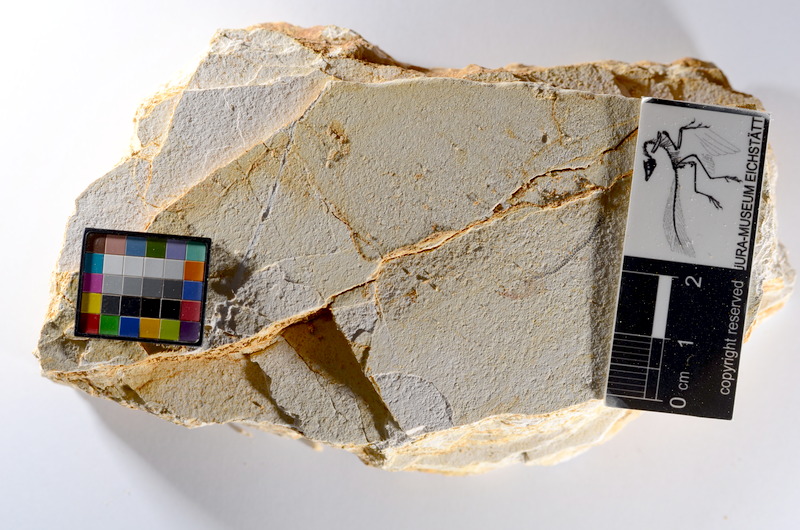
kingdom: Animalia
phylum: Chordata
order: Salmoniformes
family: Orthogonikleithridae
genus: Orthogonikleithrus
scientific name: Orthogonikleithrus hoelli
